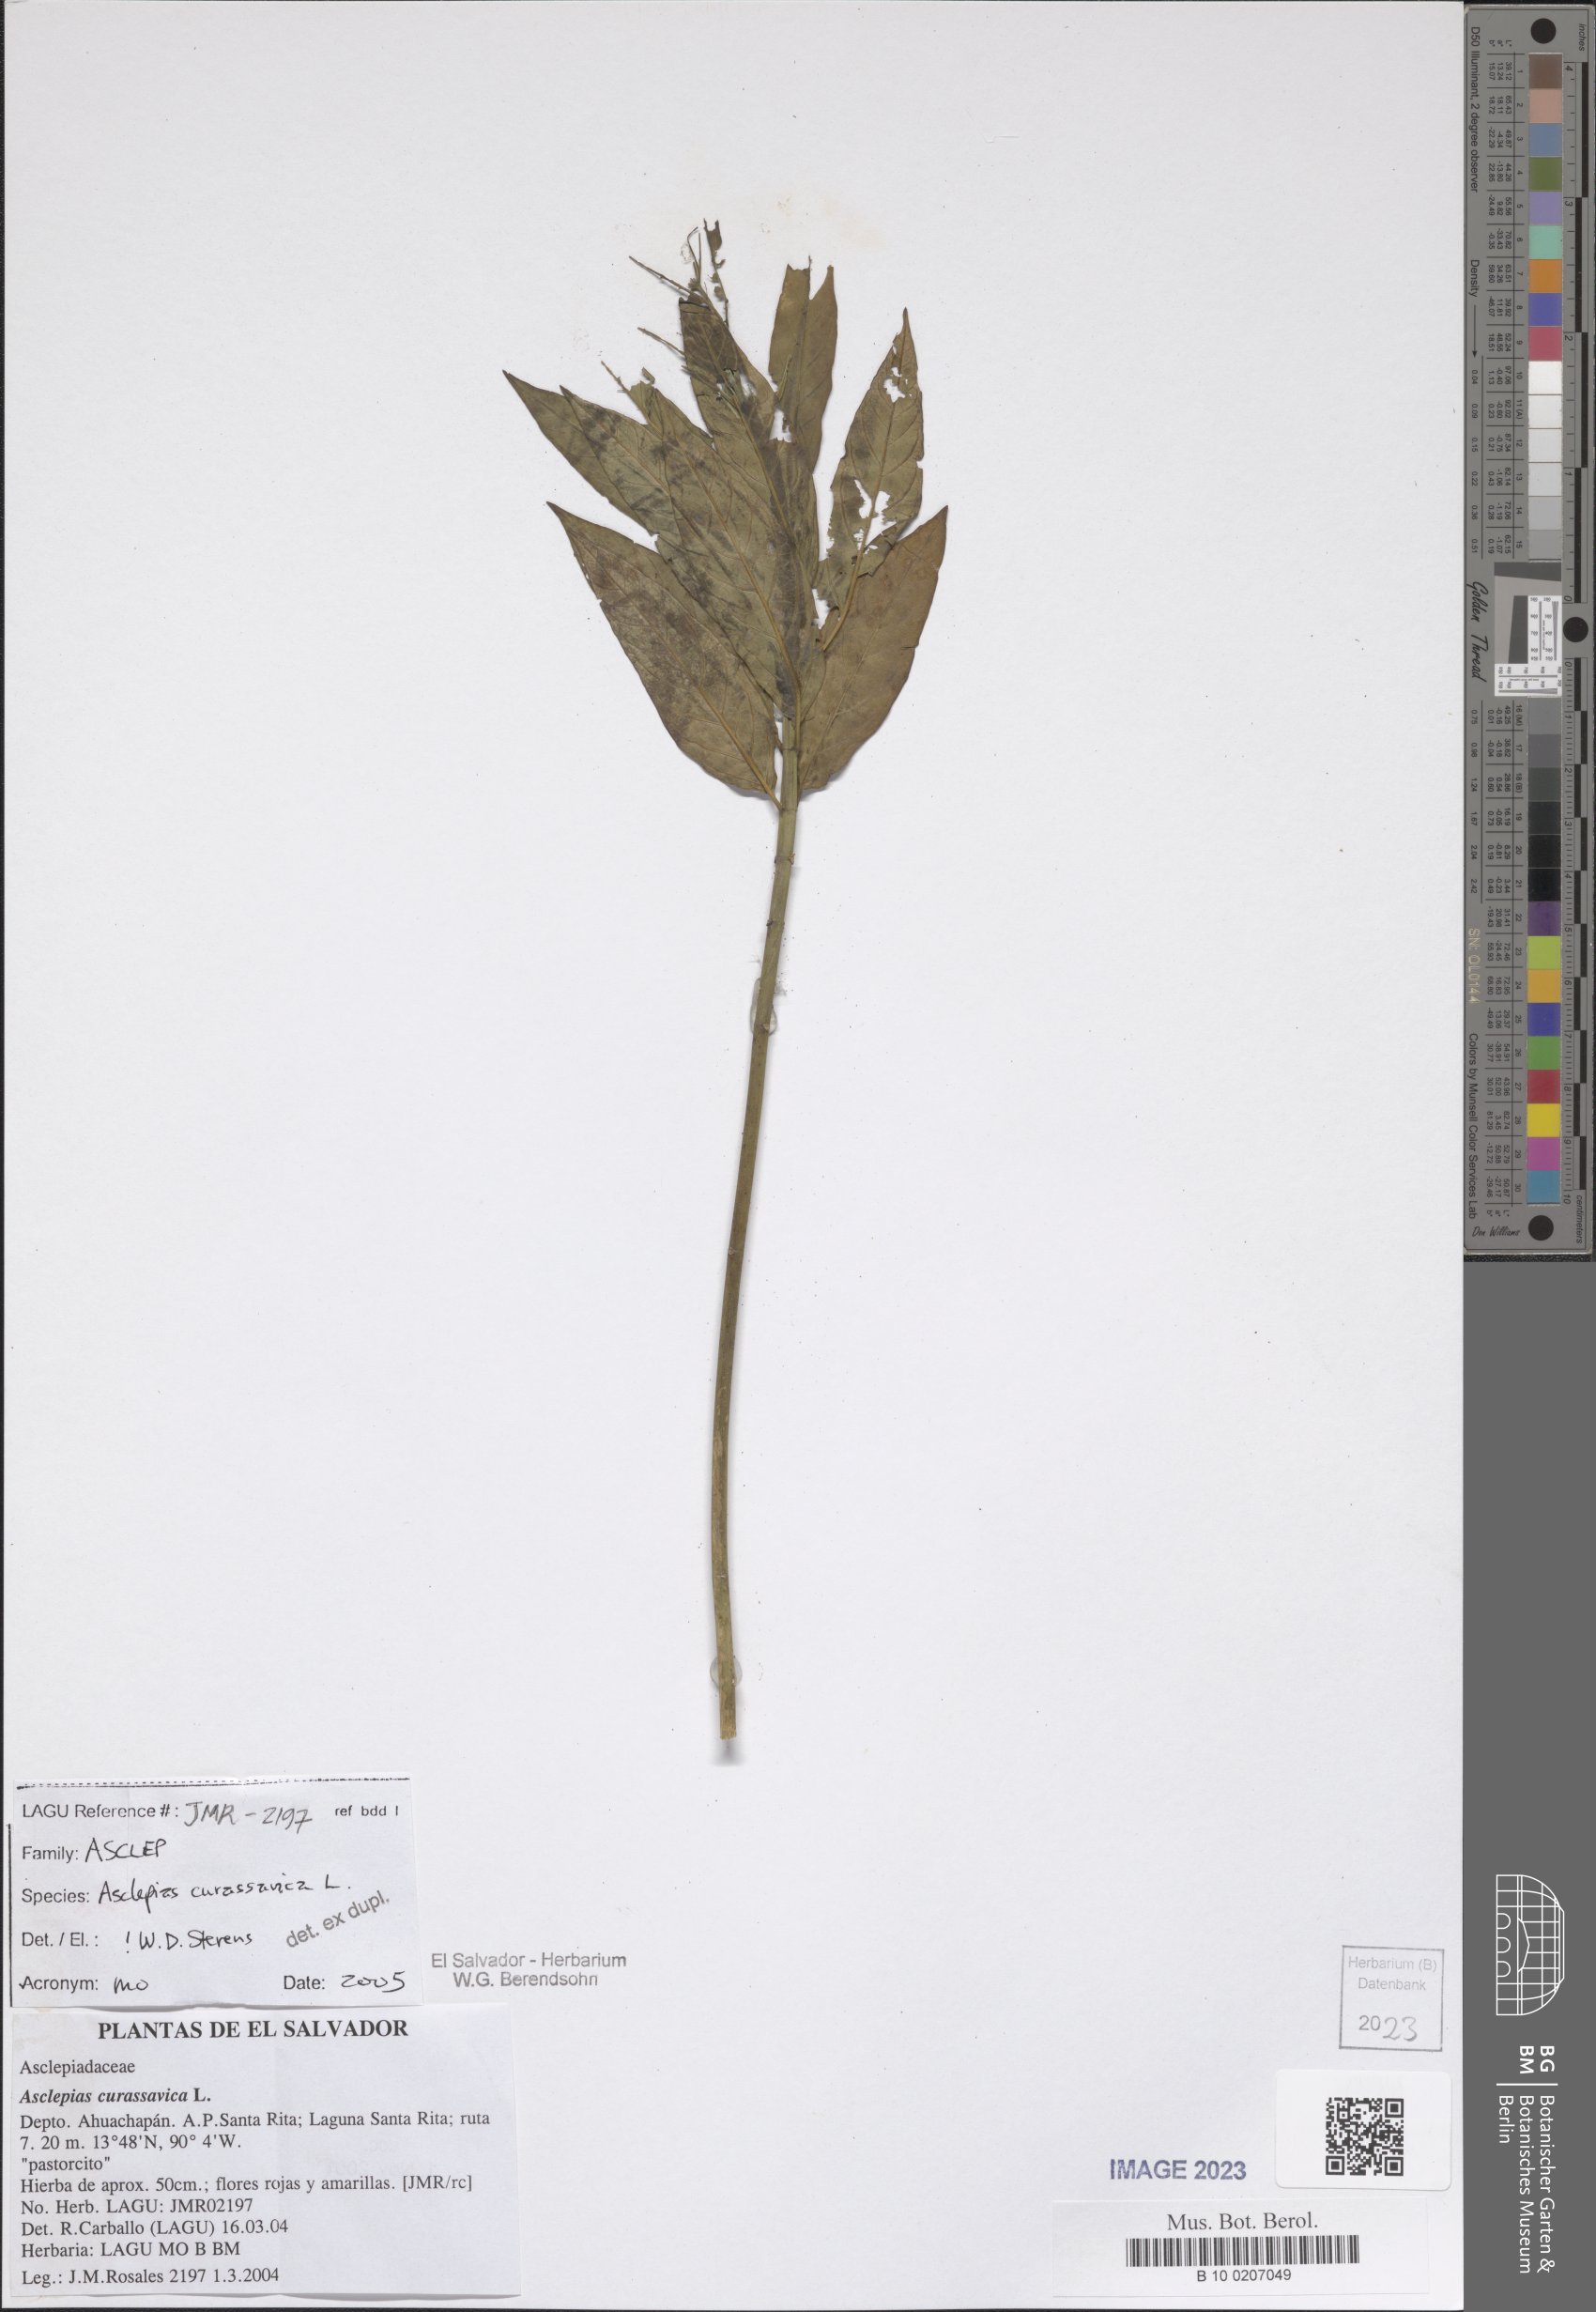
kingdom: Plantae
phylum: Tracheophyta
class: Magnoliopsida
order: Gentianales
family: Apocynaceae
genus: Asclepias
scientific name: Asclepias curassavica
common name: Bloodflower
